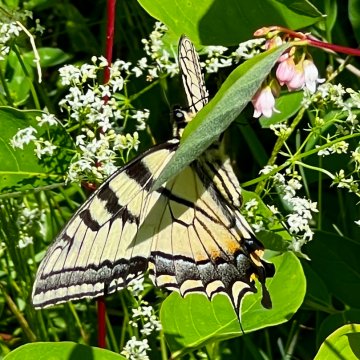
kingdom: Animalia
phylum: Arthropoda
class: Insecta
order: Lepidoptera
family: Papilionidae
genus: Pterourus
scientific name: Pterourus canadensis
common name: Canadian Tiger Swallowtail
